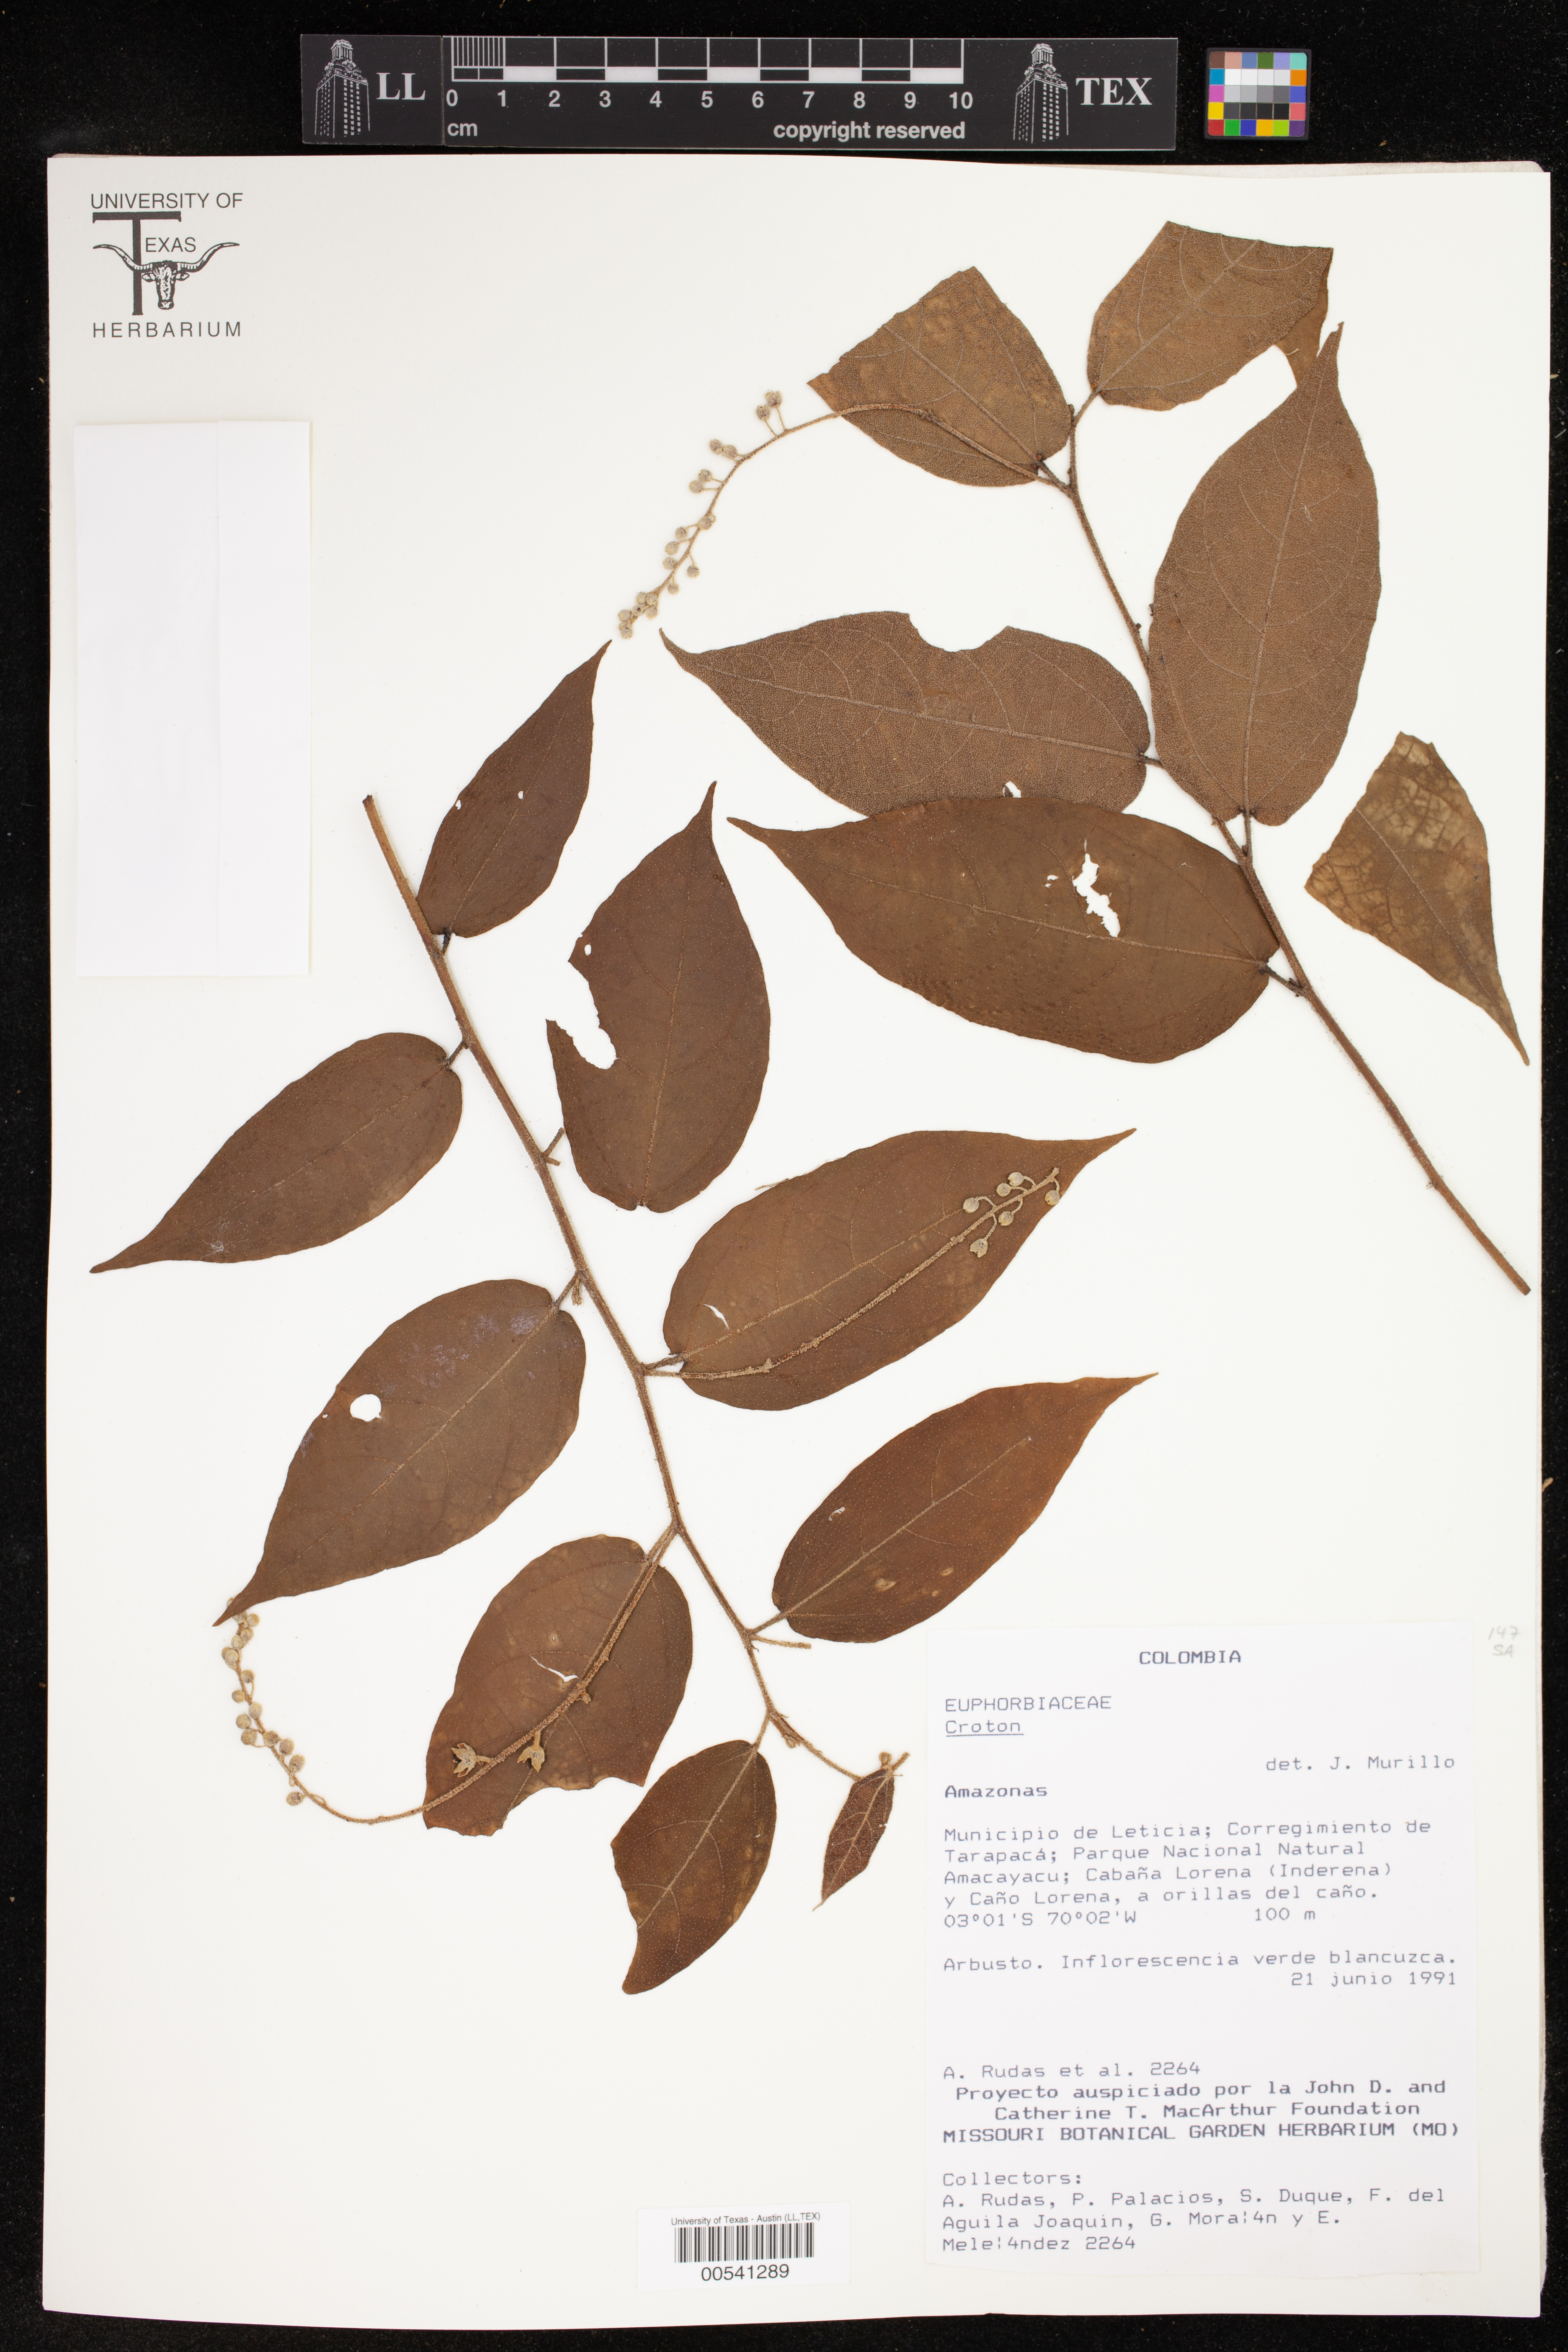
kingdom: Plantae
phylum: Tracheophyta
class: Magnoliopsida
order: Malpighiales
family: Euphorbiaceae
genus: Croton
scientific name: Croton
